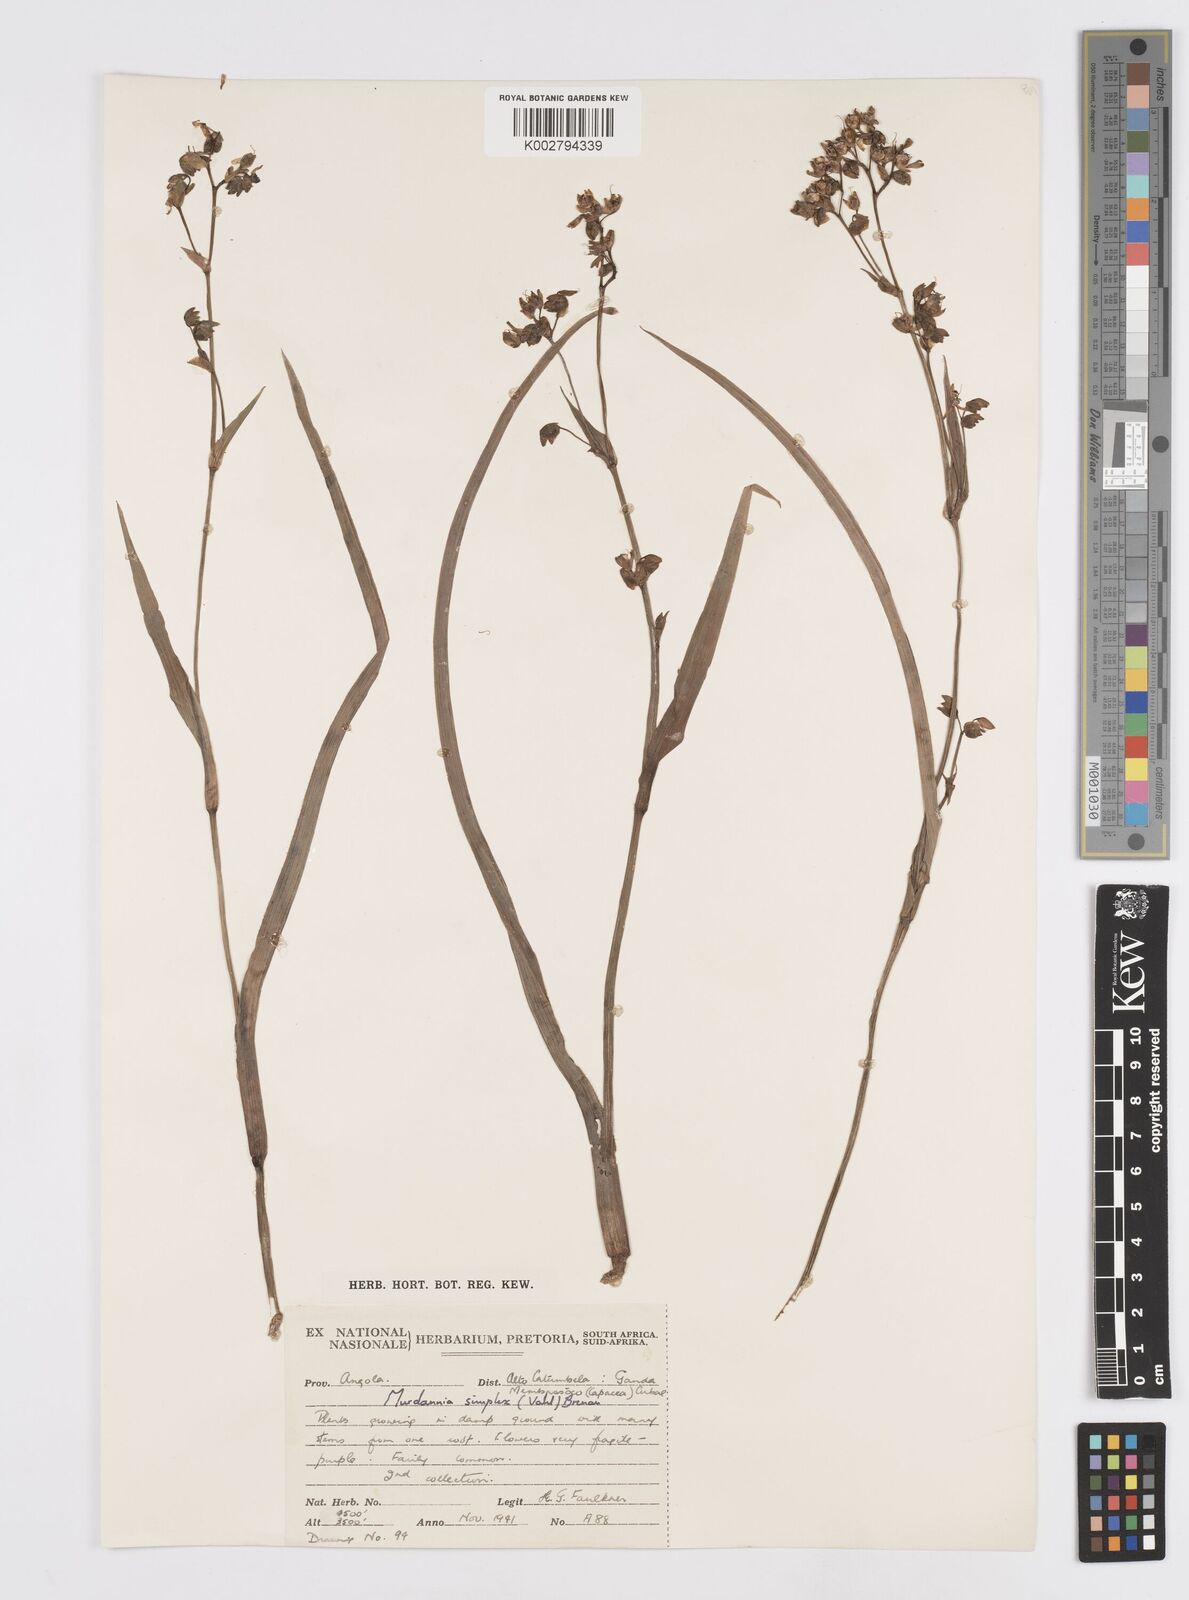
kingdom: Plantae
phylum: Tracheophyta
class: Liliopsida
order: Commelinales
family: Commelinaceae
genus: Murdannia
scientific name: Murdannia simplex
